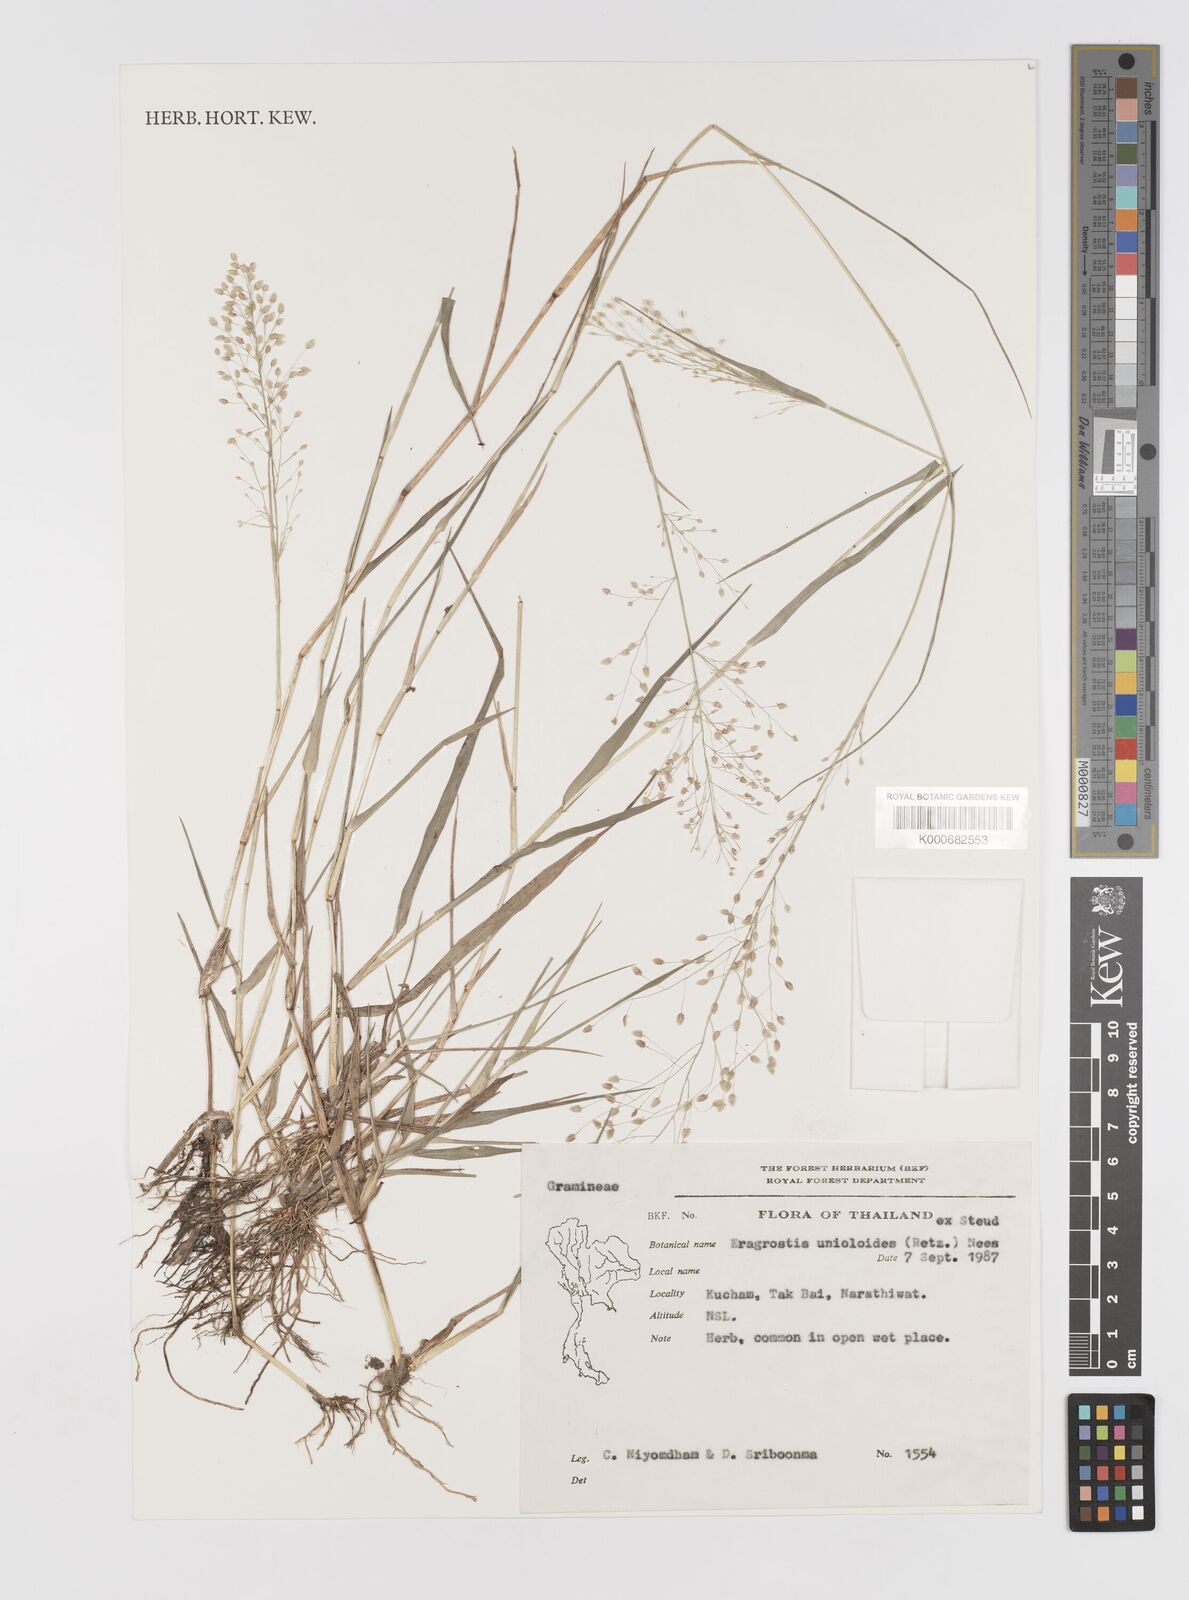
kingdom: Plantae
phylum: Tracheophyta
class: Liliopsida
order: Poales
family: Poaceae
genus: Eragrostis
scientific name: Eragrostis unioloides
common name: Chinese lovegrass
